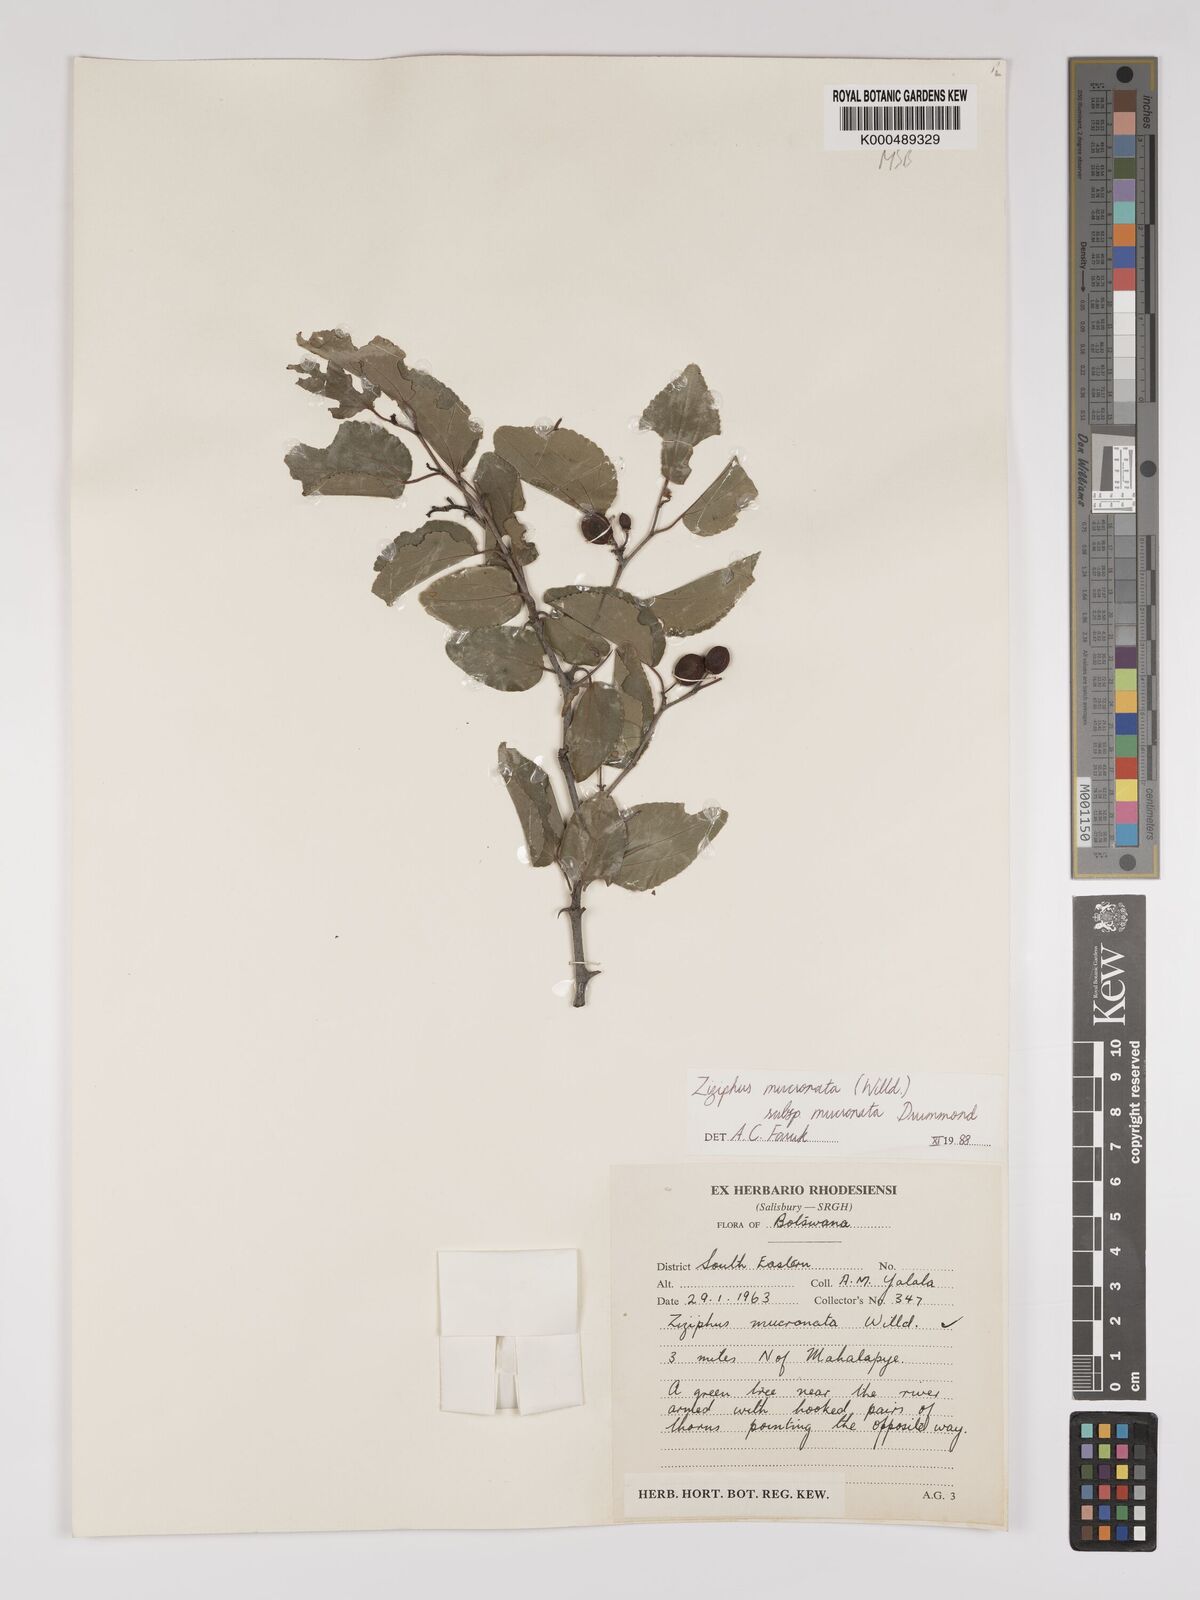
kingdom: Plantae
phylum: Tracheophyta
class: Magnoliopsida
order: Rosales
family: Rhamnaceae
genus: Ziziphus
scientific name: Ziziphus mucronata
